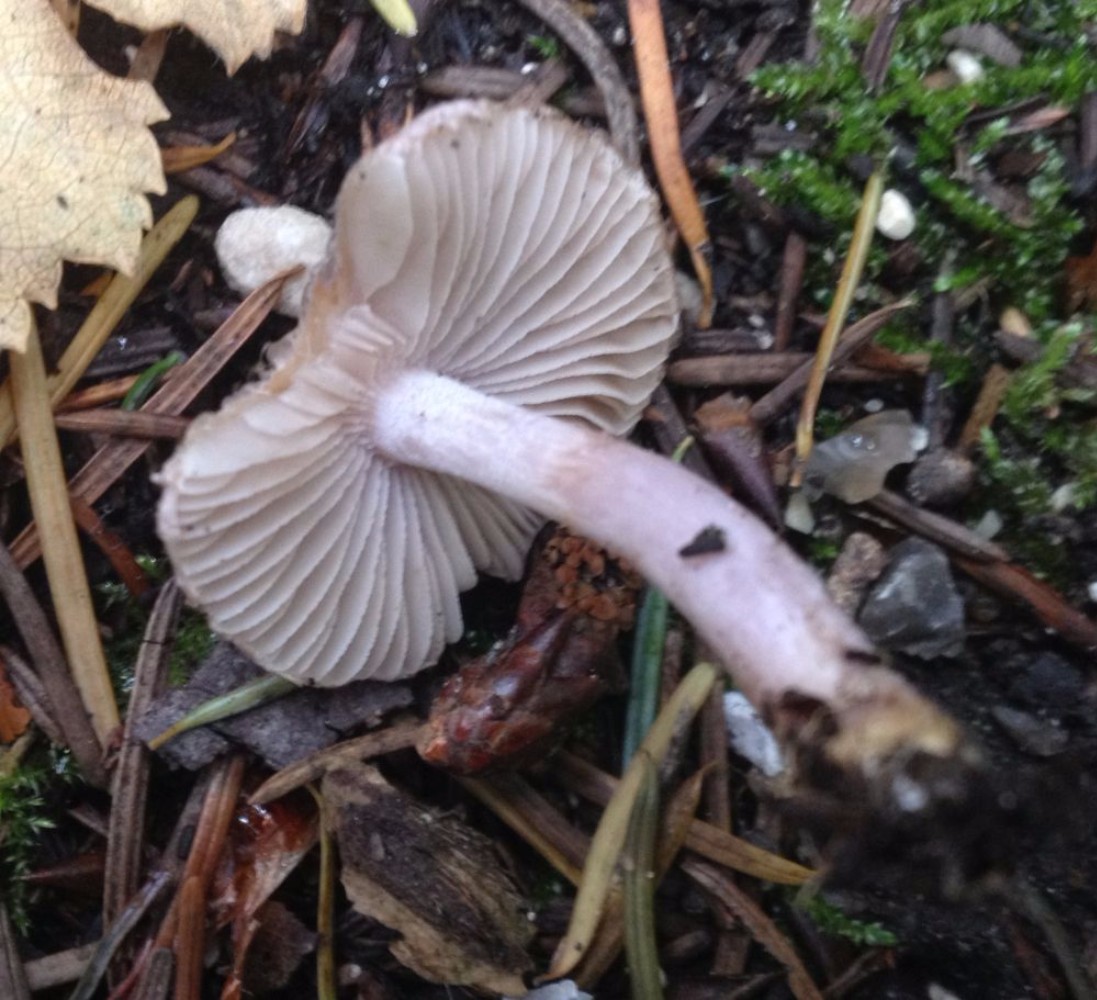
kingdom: Fungi
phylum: Basidiomycota
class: Agaricomycetes
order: Agaricales
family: Inocybaceae
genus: Inocybe
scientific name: Inocybe geophylla
